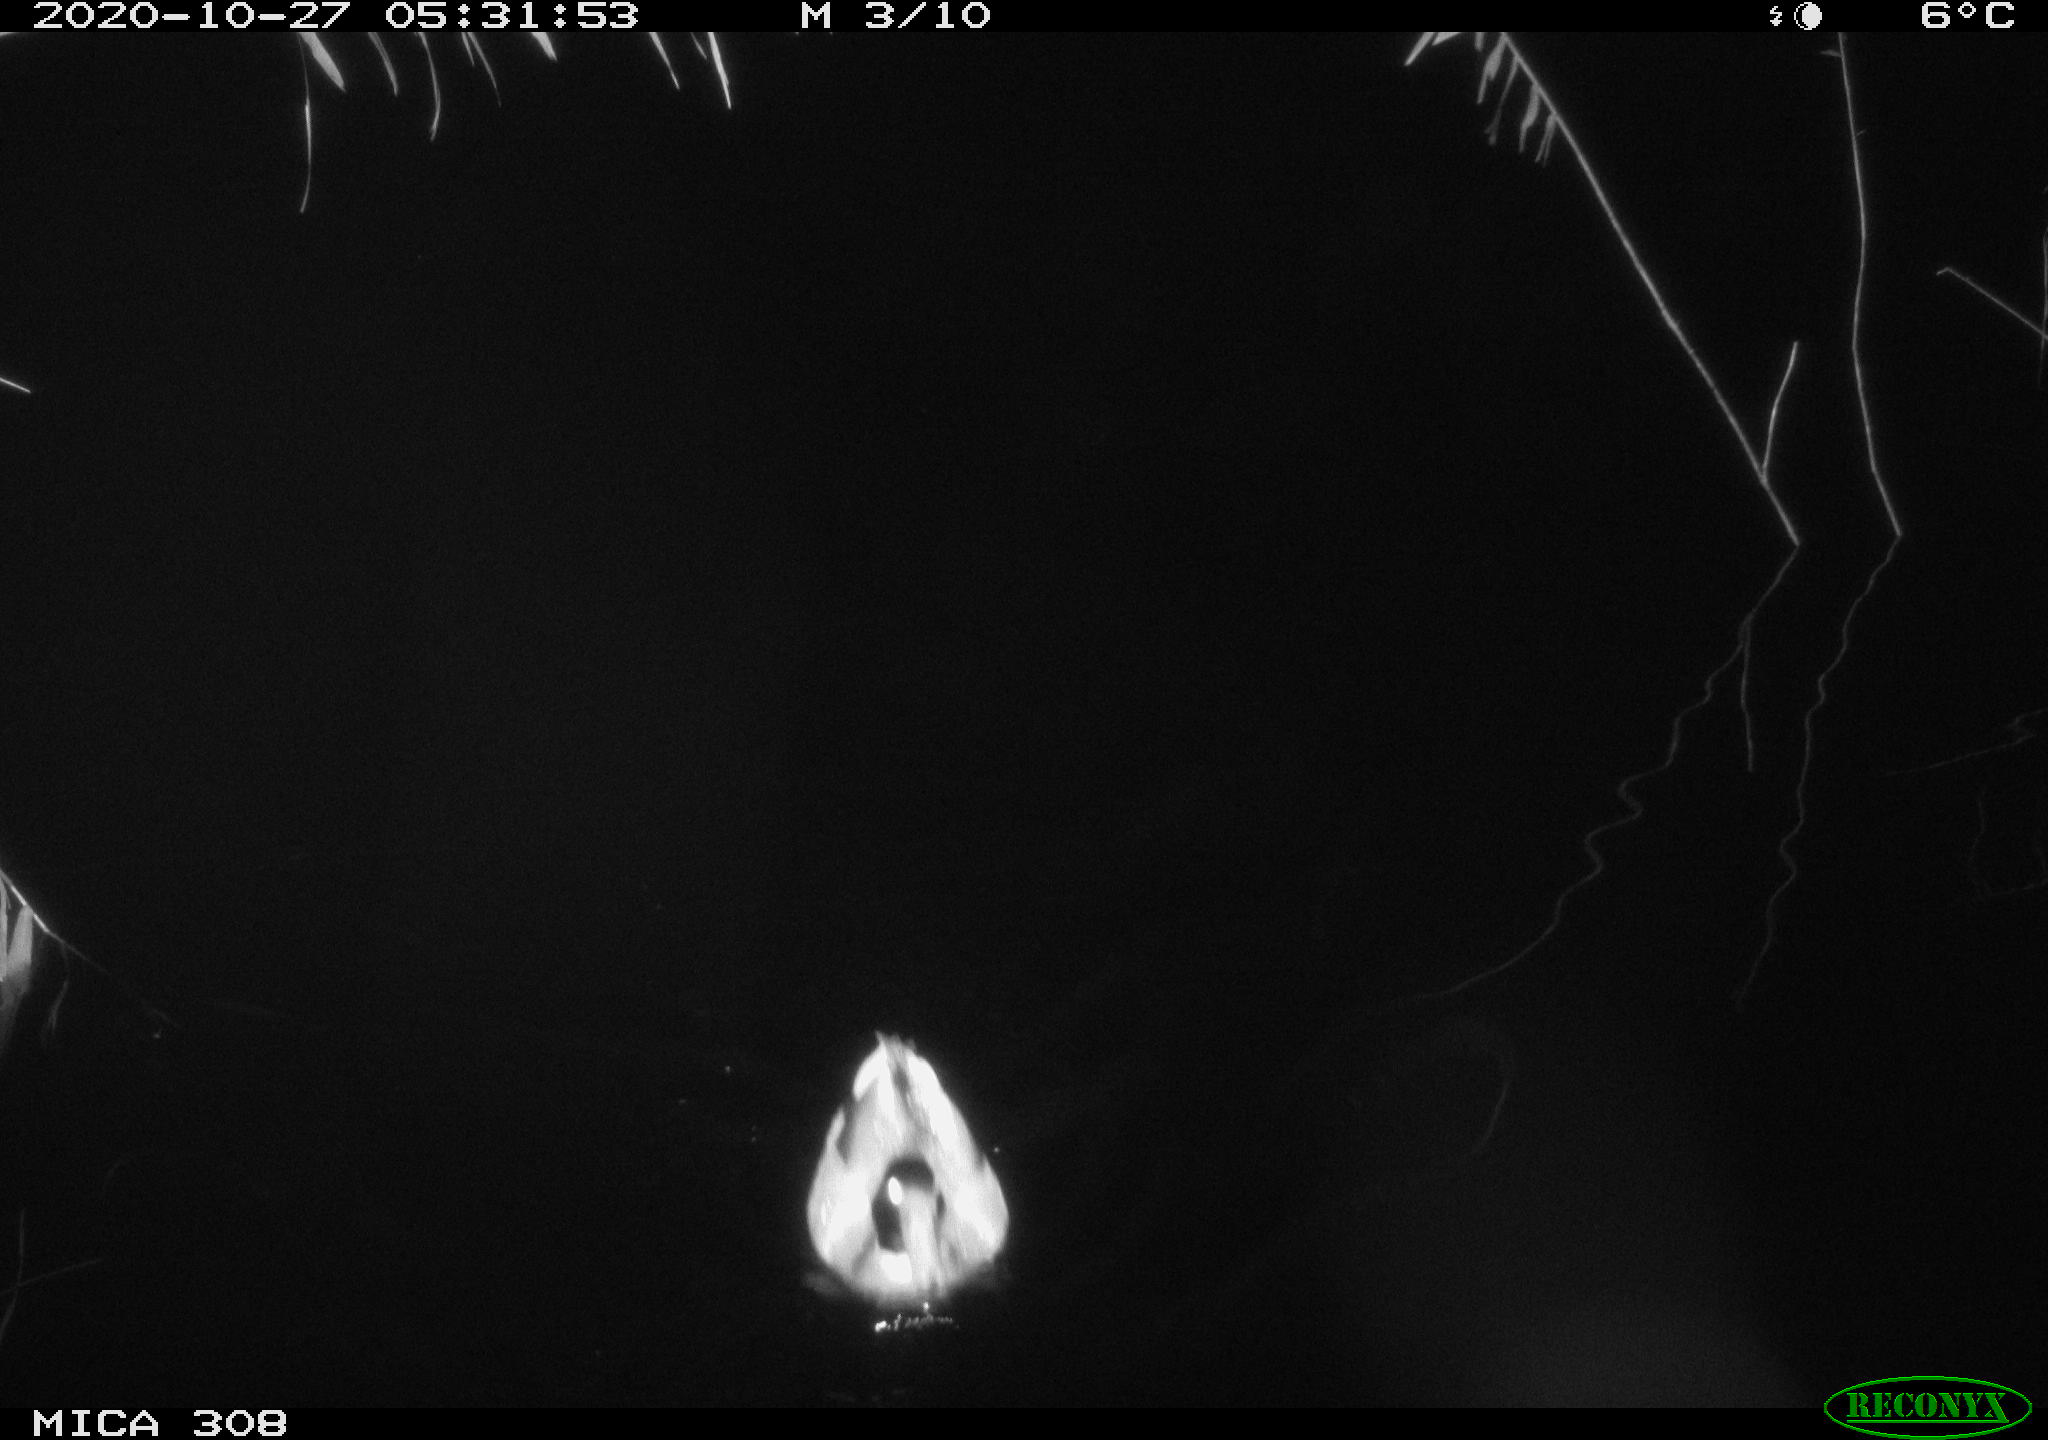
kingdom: Animalia
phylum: Chordata
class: Aves
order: Anseriformes
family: Anatidae
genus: Anas
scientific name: Anas platyrhynchos
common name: Mallard
